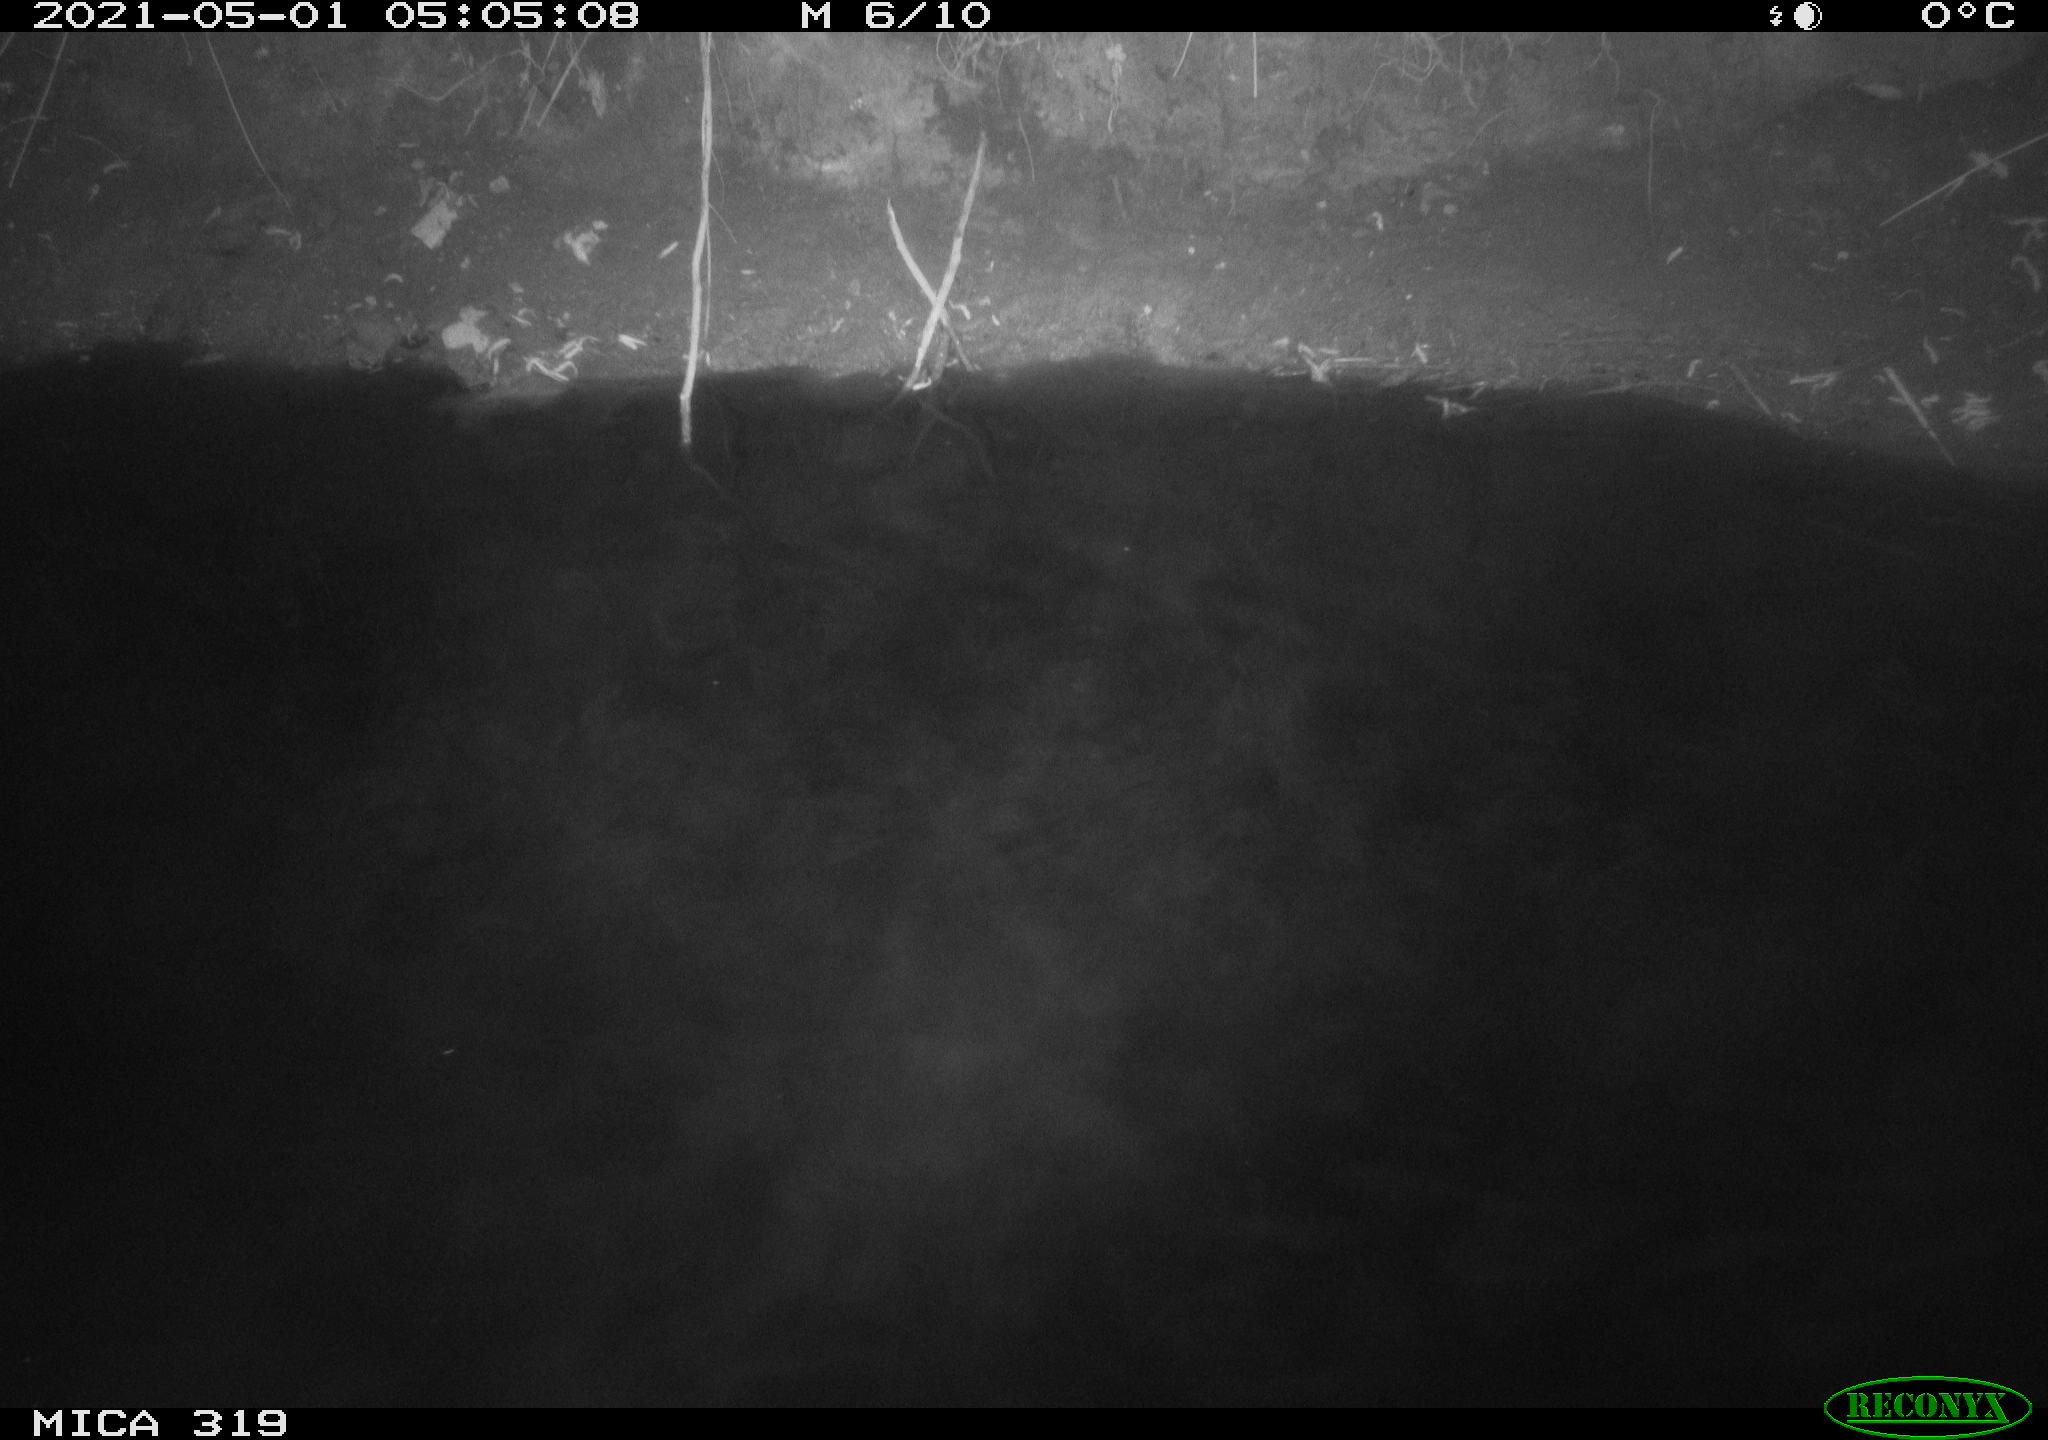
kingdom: Animalia
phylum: Chordata
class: Aves
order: Anseriformes
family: Anatidae
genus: Anas
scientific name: Anas platyrhynchos
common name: Mallard
